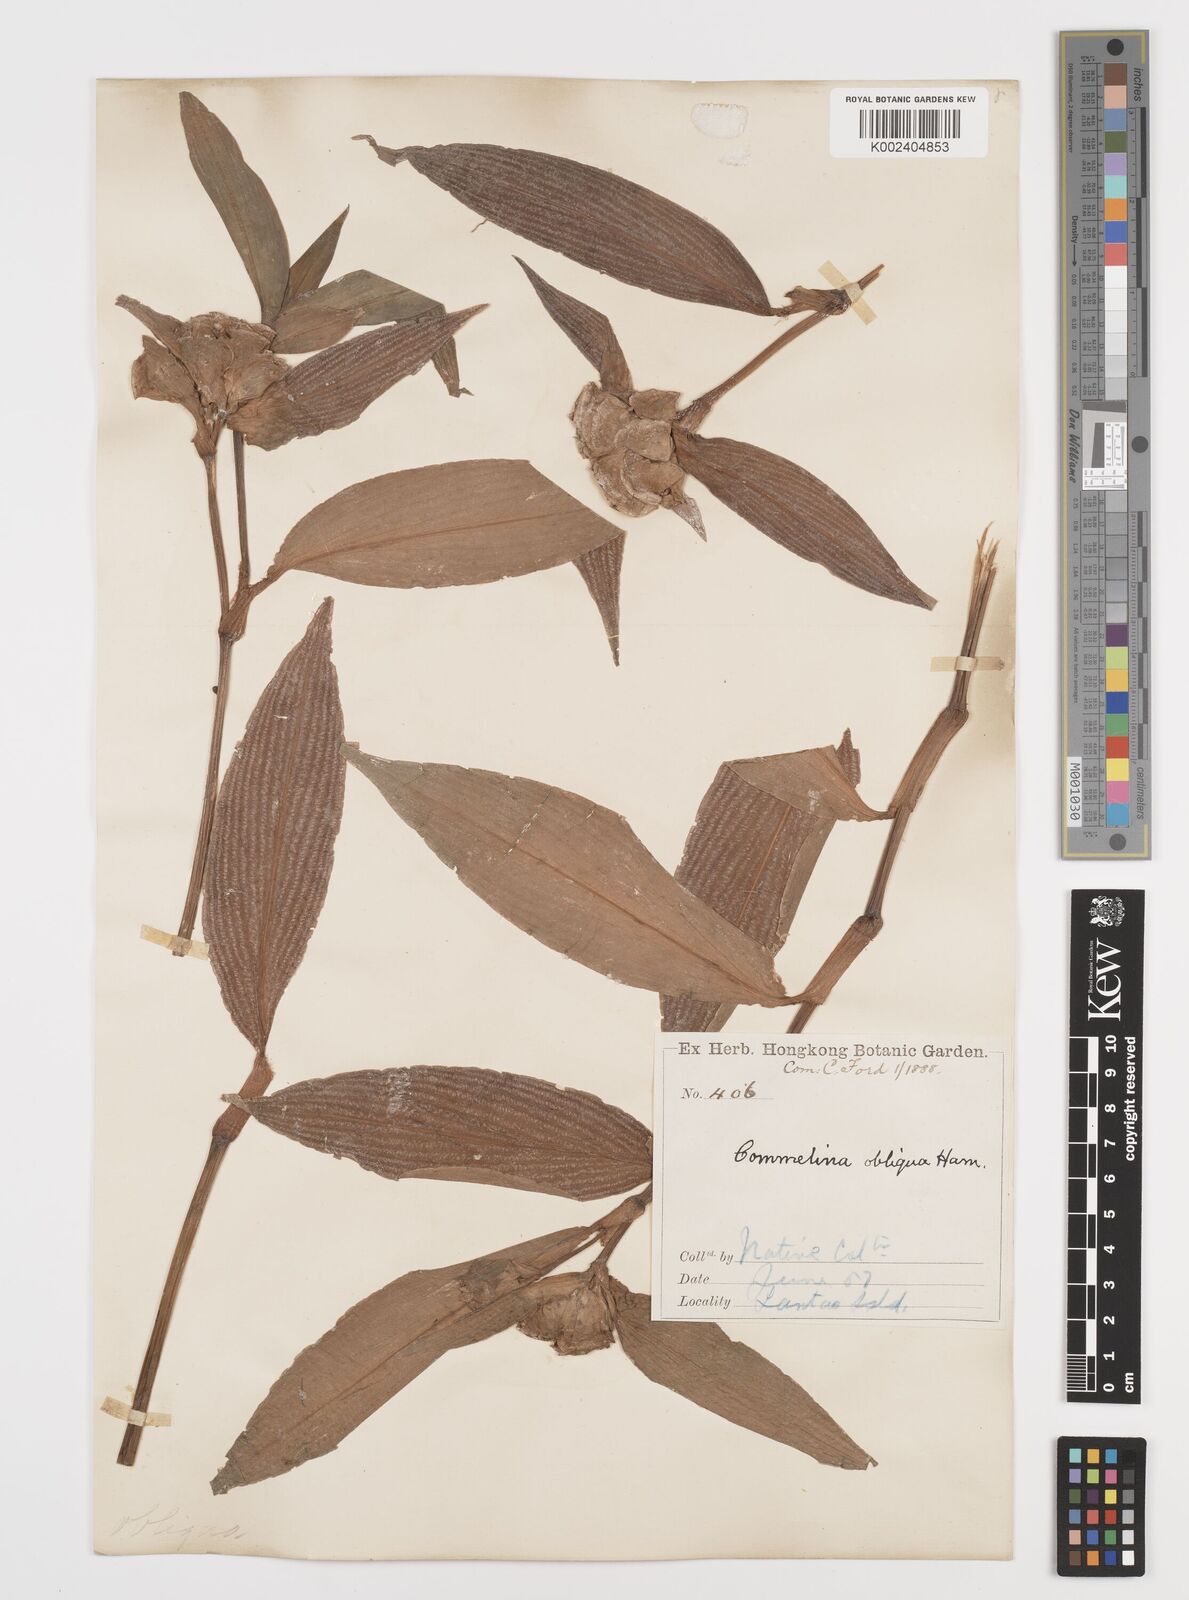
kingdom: Plantae
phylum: Tracheophyta
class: Liliopsida
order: Commelinales
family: Commelinaceae
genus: Commelina
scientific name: Commelina obliqua
